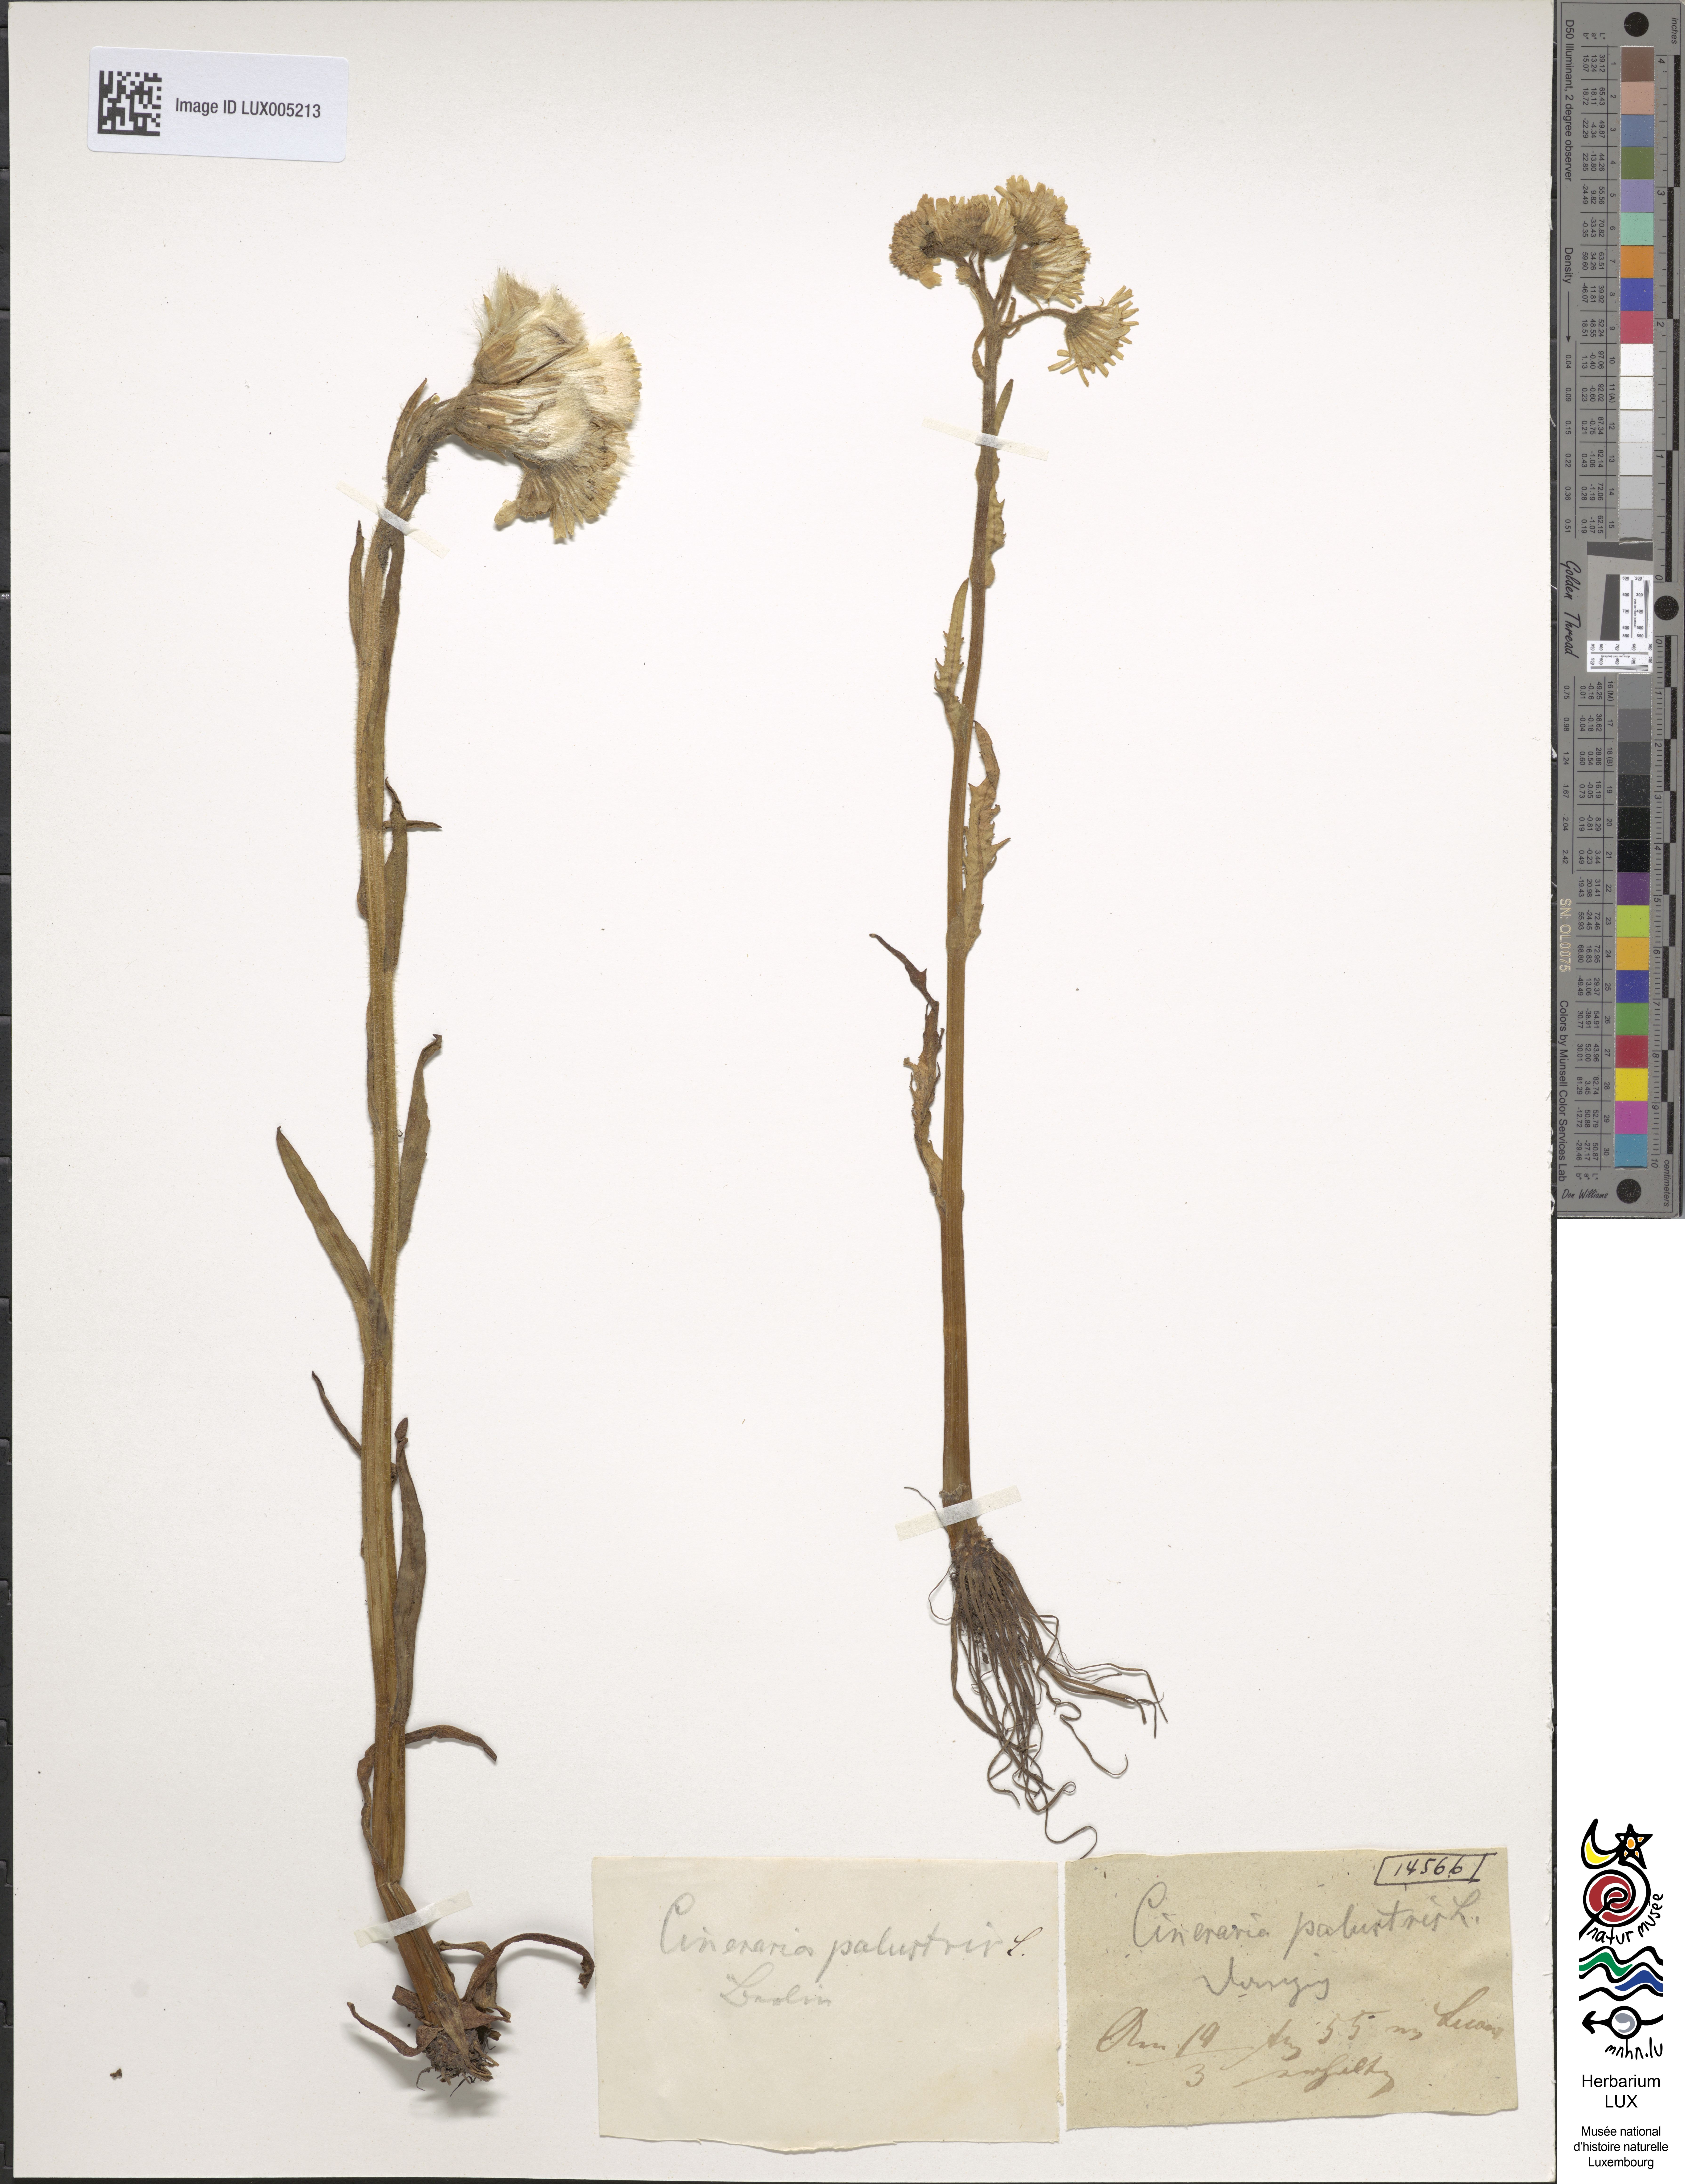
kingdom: Plantae
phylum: Tracheophyta
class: Magnoliopsida
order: Asterales
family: Asteraceae
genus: Senecio
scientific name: Senecio
